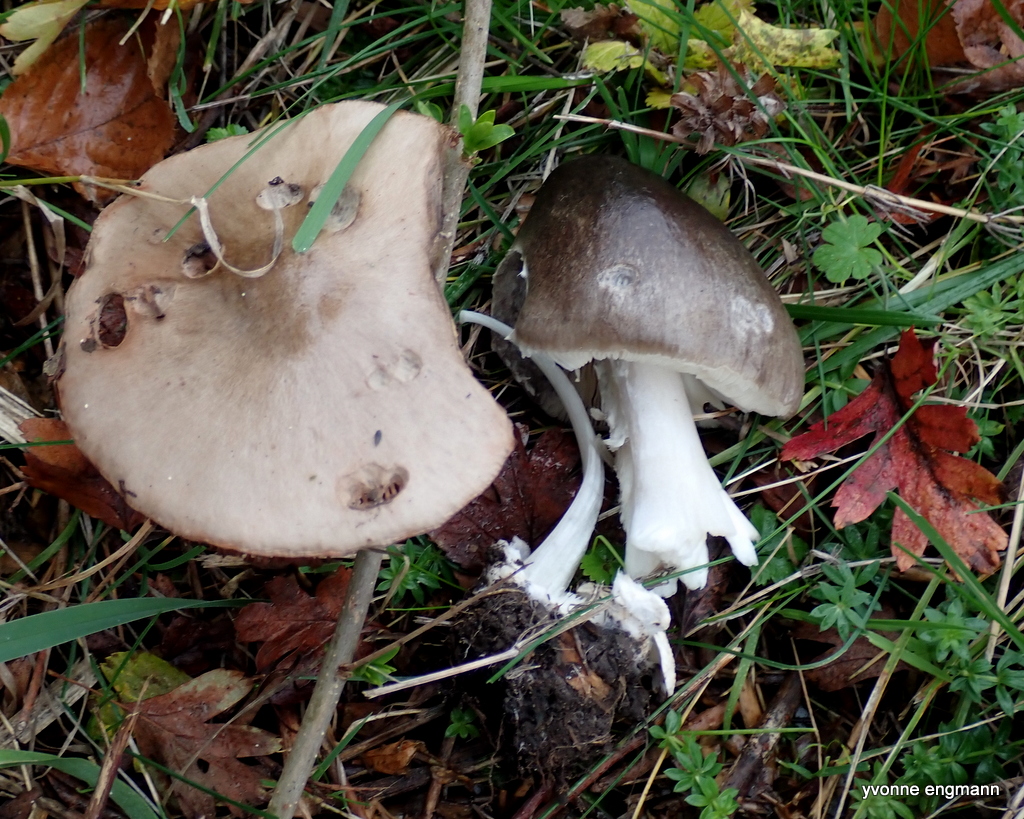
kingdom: Fungi
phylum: Basidiomycota
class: Agaricomycetes
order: Agaricales
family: Pluteaceae
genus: Volvopluteus
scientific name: Volvopluteus gloiocephalus
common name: høj posesvamp
